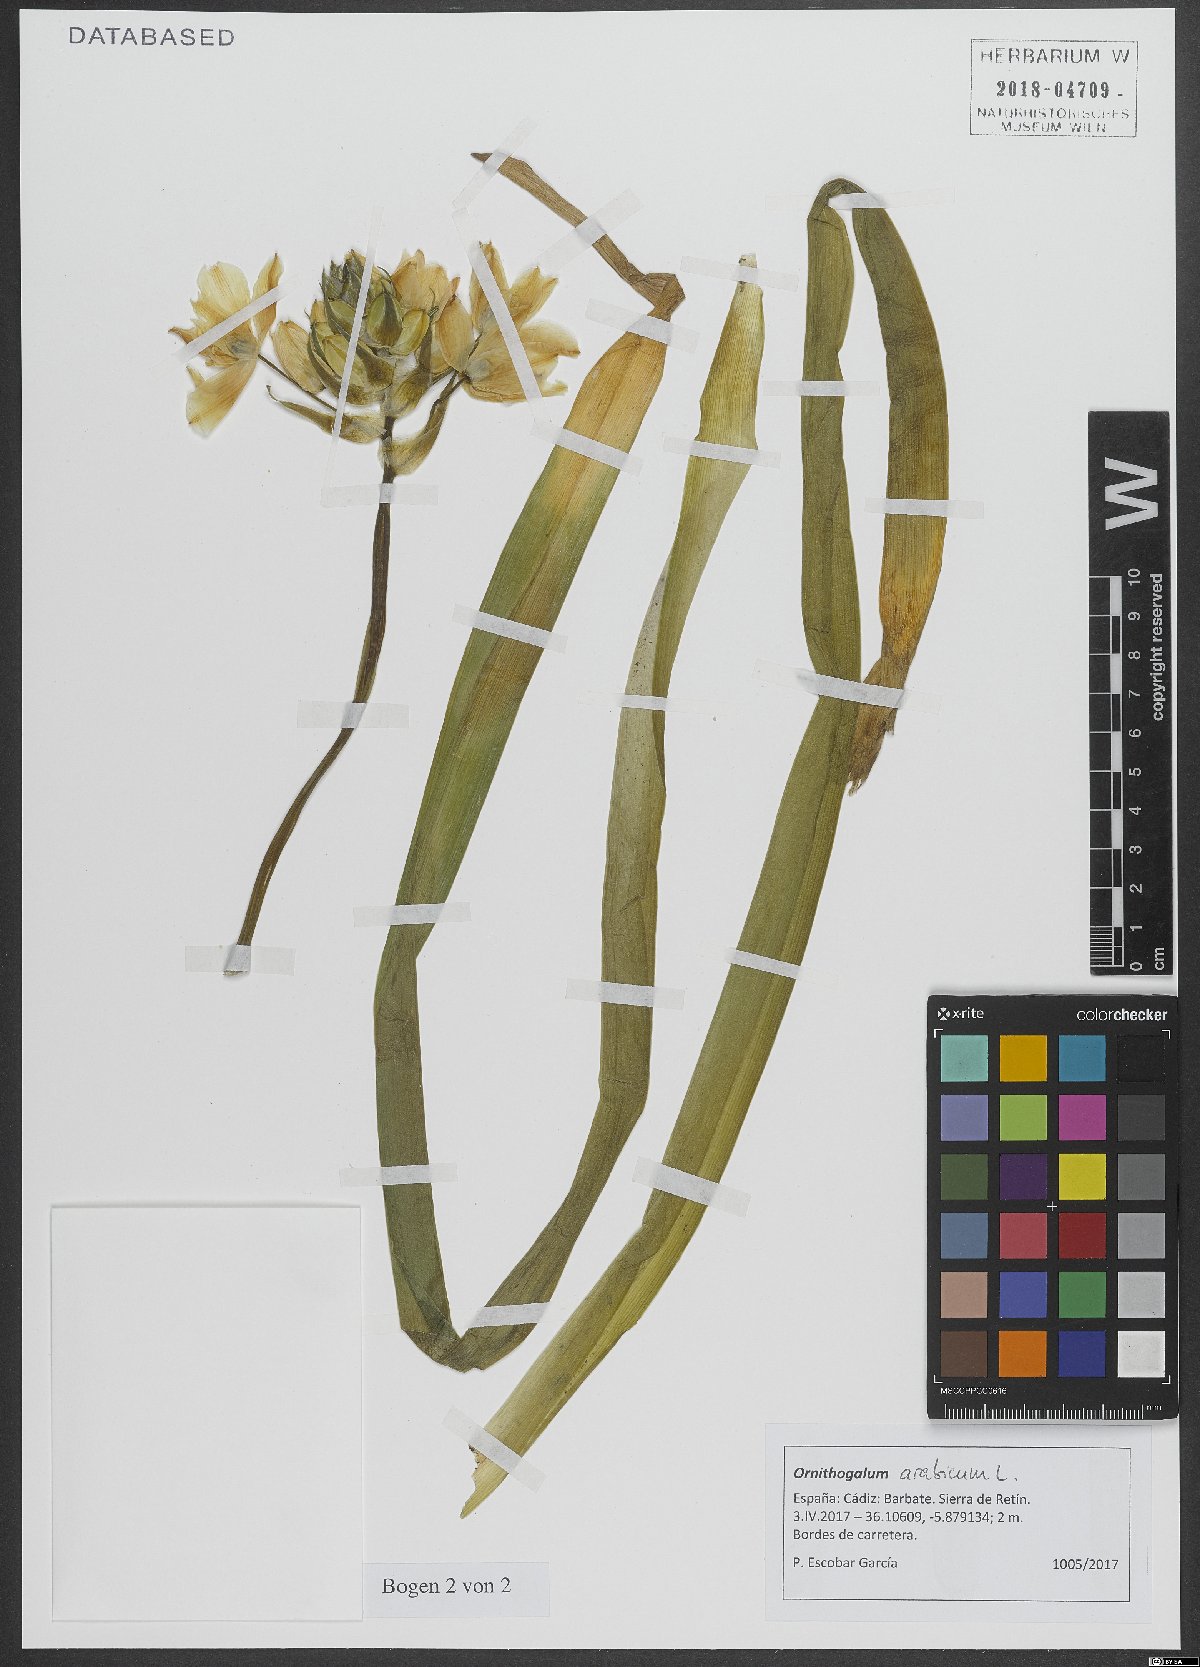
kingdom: Plantae
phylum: Tracheophyta
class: Liliopsida
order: Asparagales
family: Asparagaceae
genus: Ornithogalum
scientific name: Ornithogalum arabicum
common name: Arabian starflower
